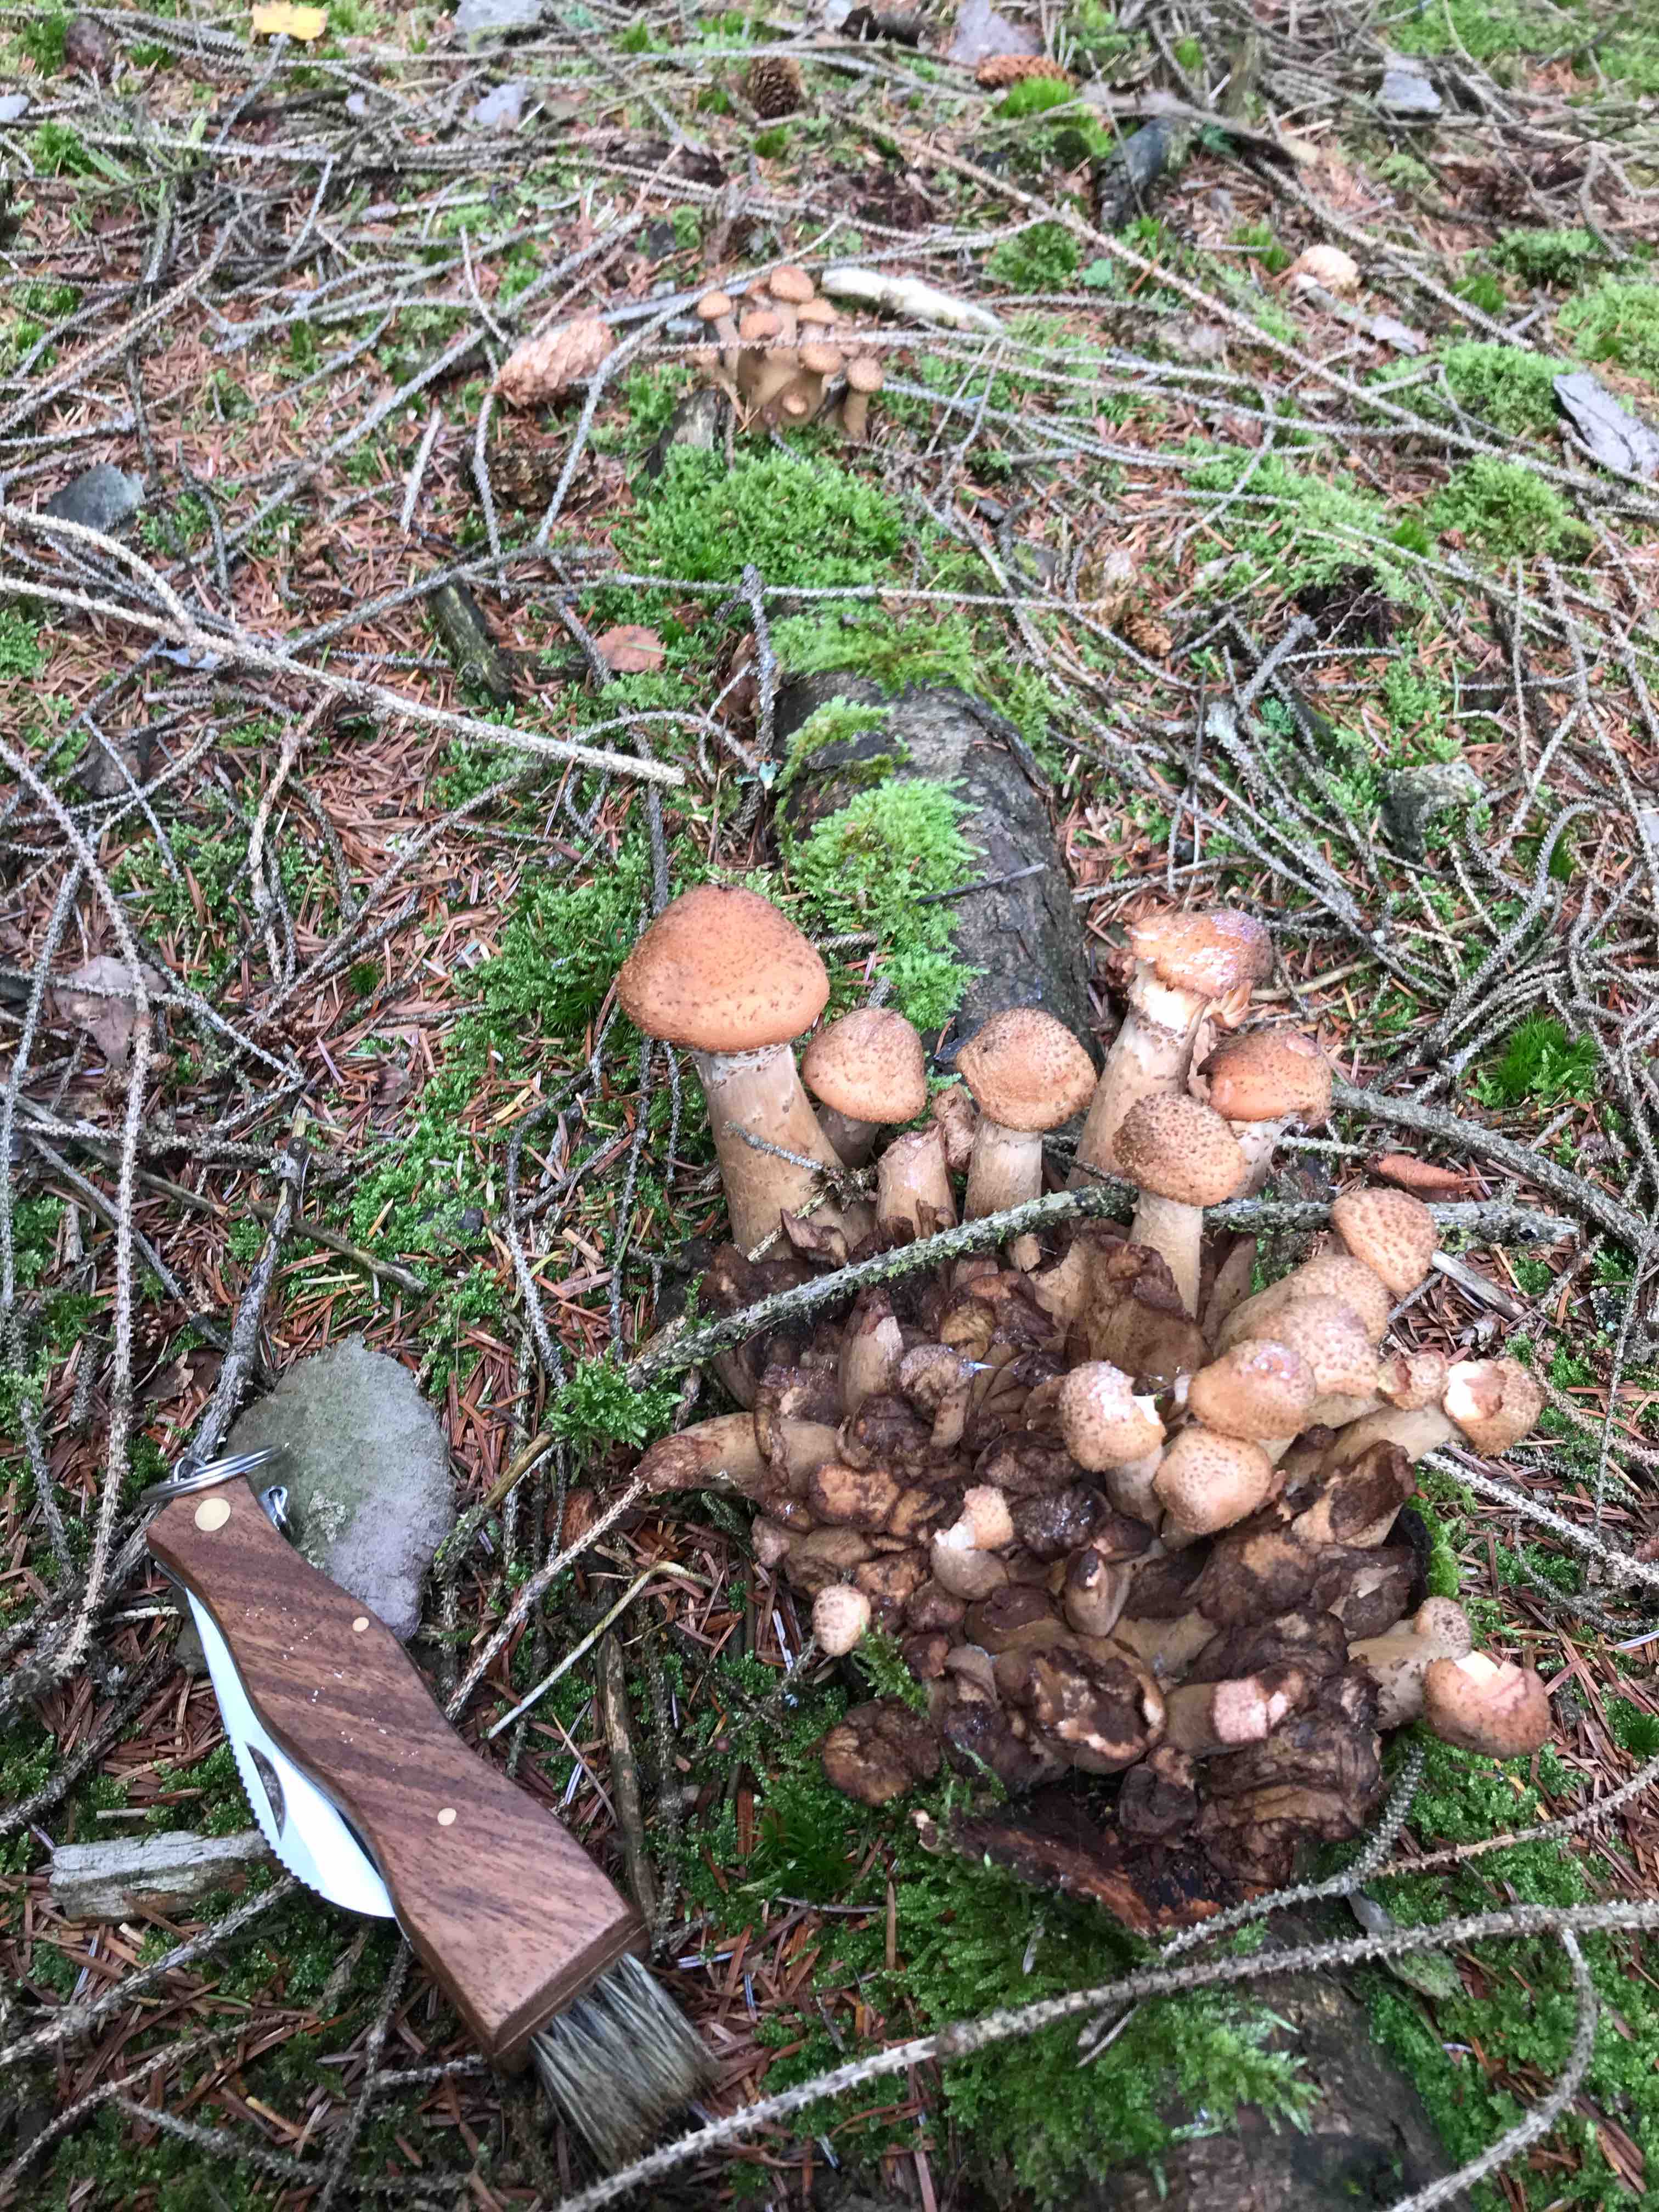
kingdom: Fungi
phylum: Basidiomycota
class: Agaricomycetes
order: Agaricales
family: Physalacriaceae
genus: Armillaria
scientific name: Armillaria ostoyae
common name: mørk honningsvamp
